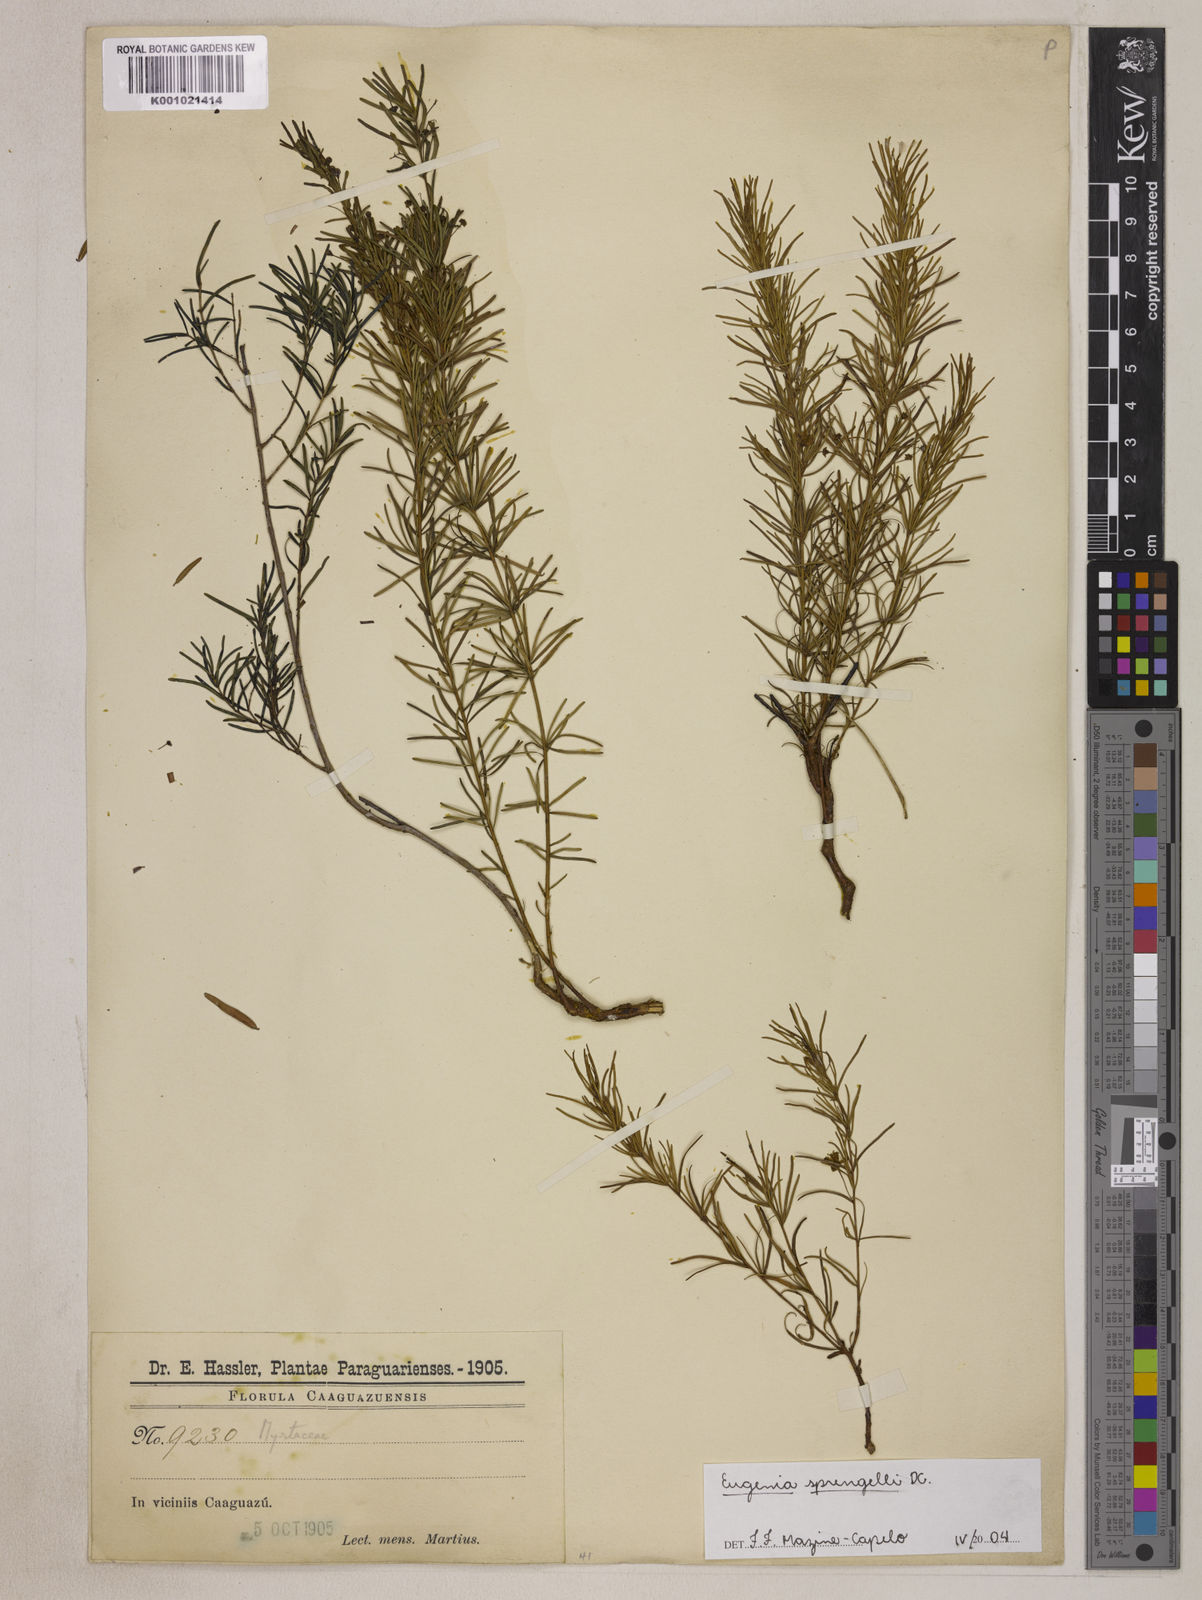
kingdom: Plantae
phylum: Tracheophyta
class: Magnoliopsida
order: Myrtales
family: Myrtaceae
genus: Eugenia
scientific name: Eugenia sprengelii
